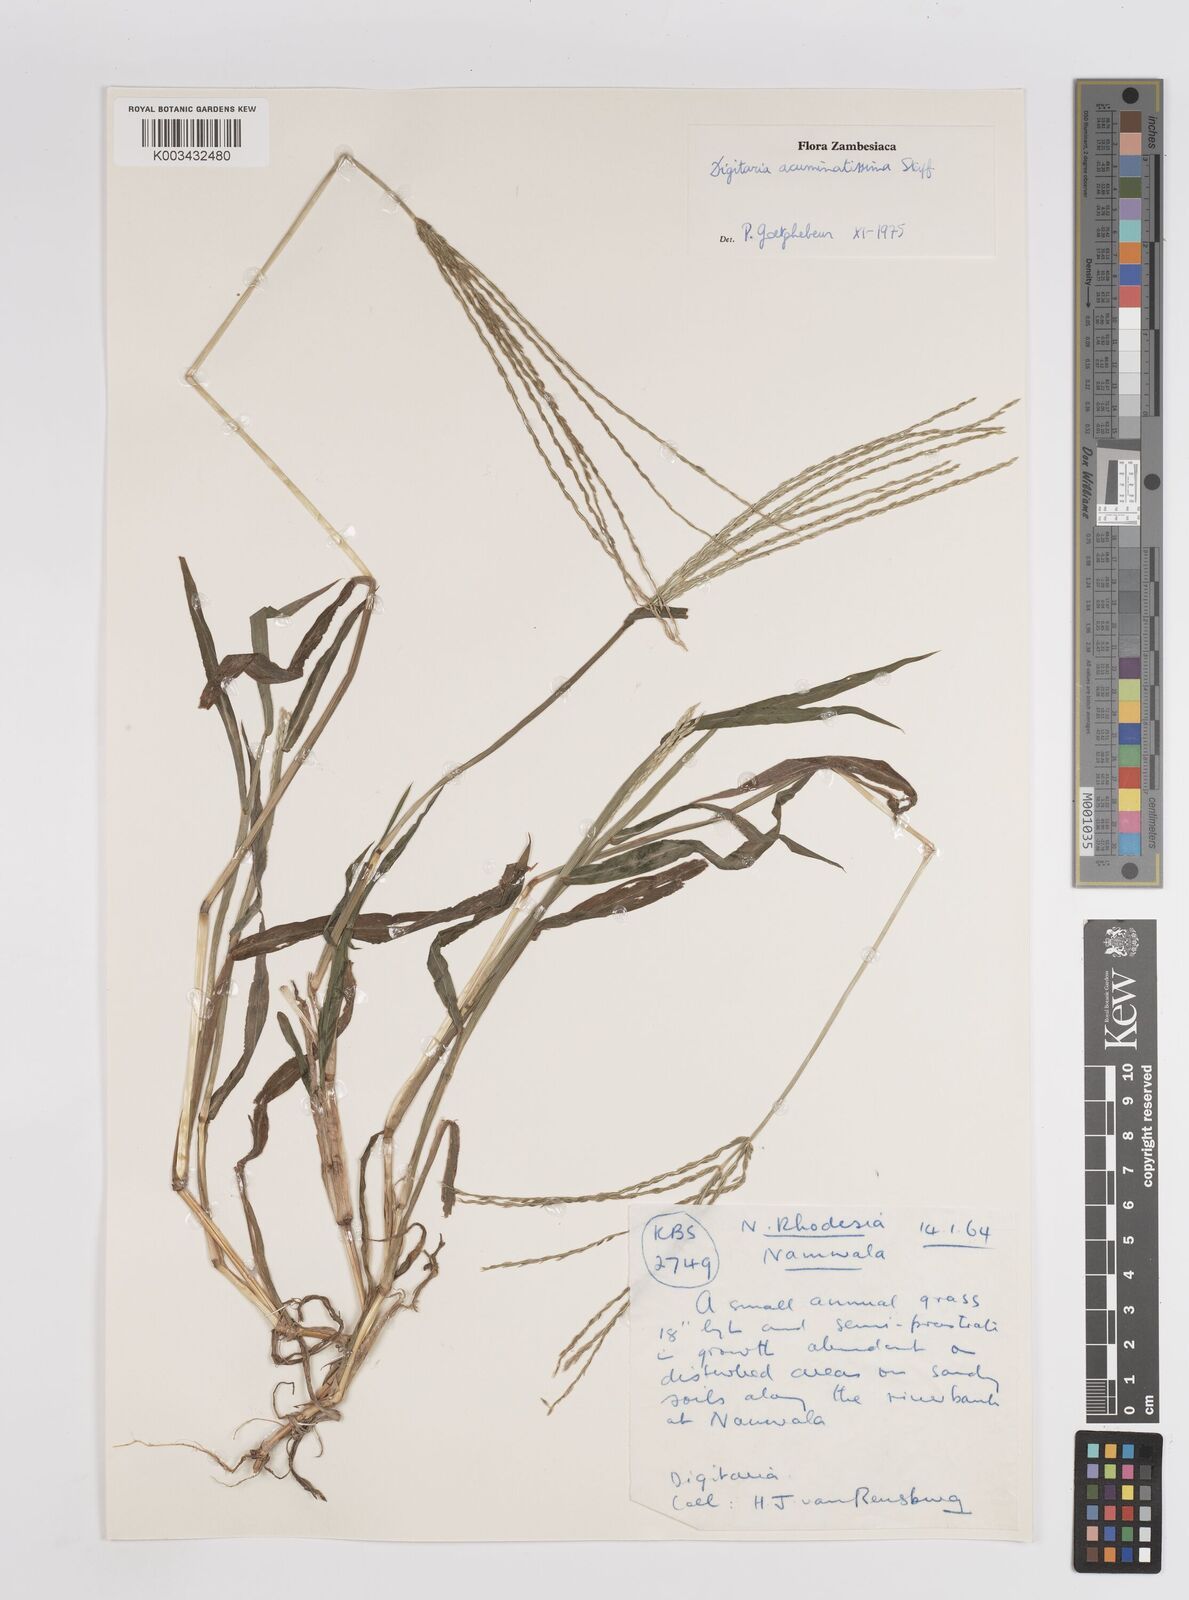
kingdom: Plantae
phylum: Tracheophyta
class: Liliopsida
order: Poales
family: Poaceae
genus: Digitaria
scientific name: Digitaria acuminatissima
